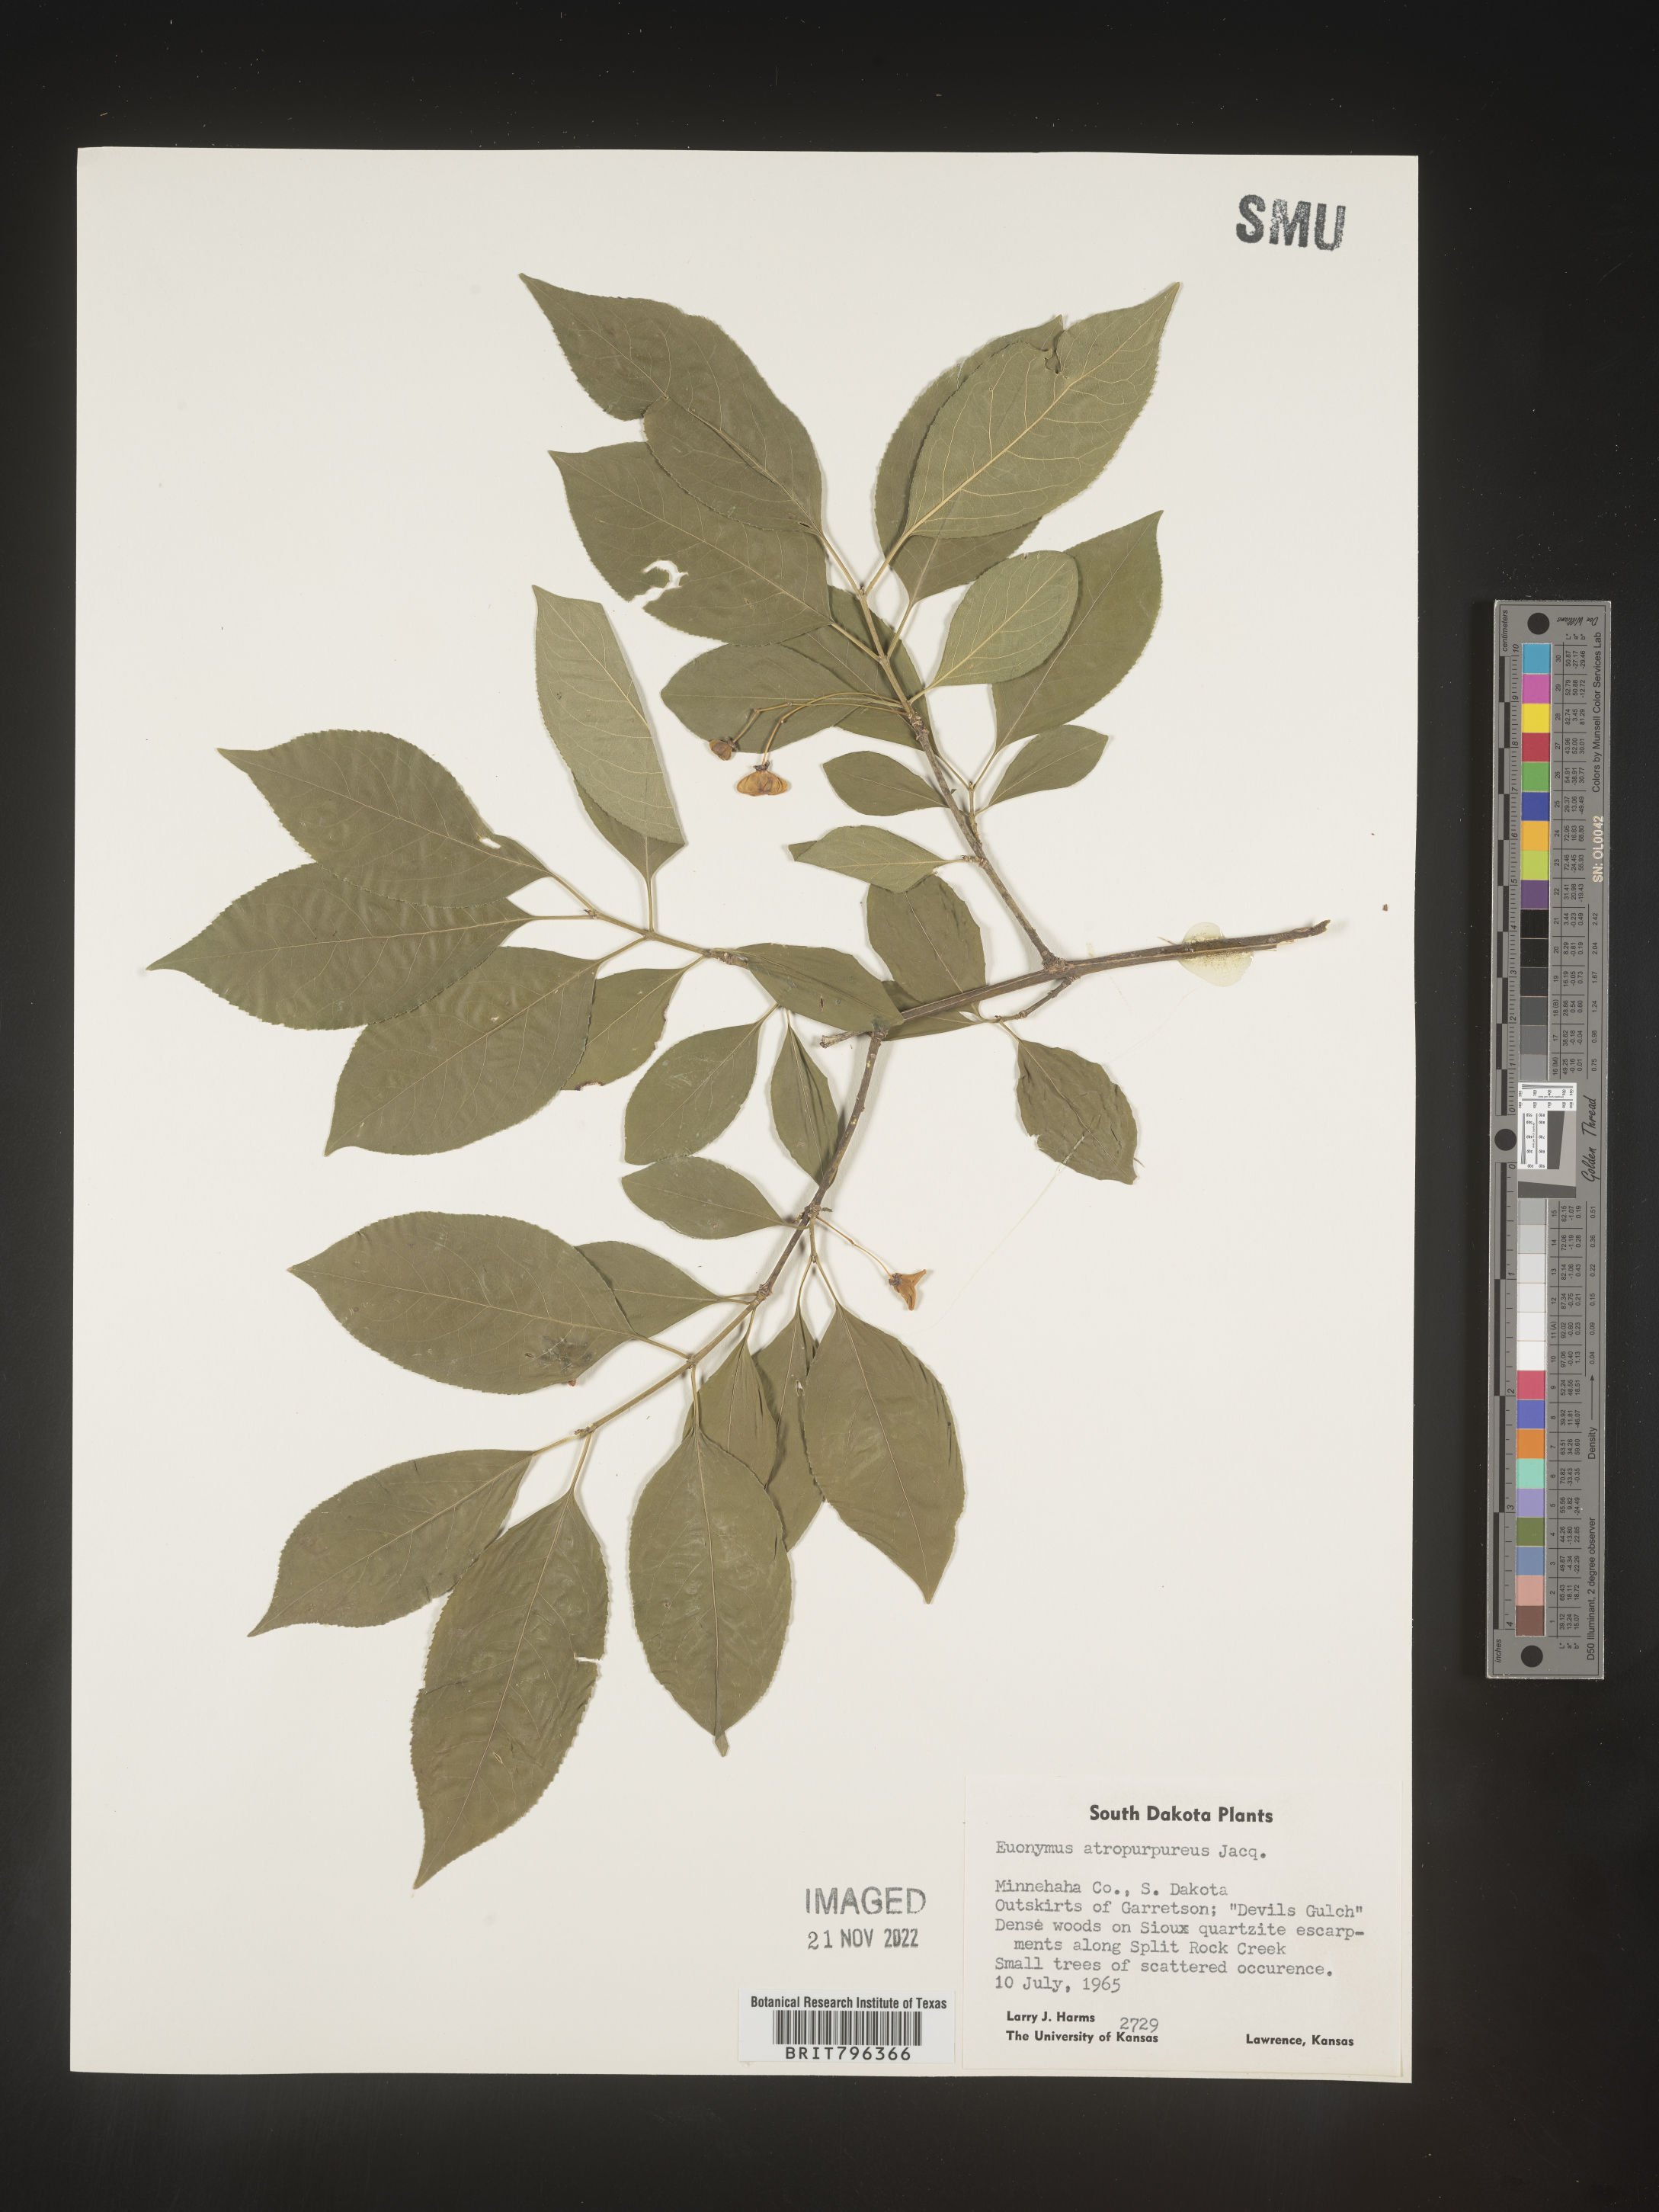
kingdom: Plantae
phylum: Tracheophyta
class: Magnoliopsida
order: Celastrales
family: Celastraceae
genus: Euonymus
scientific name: Euonymus atropurpureus
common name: Eastern wahoo
